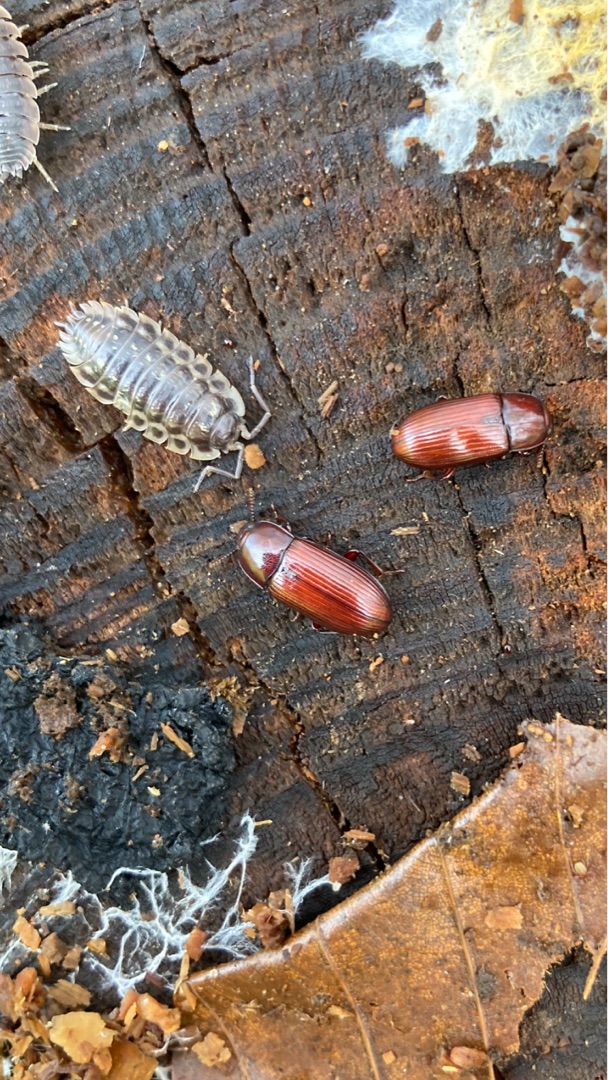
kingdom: Animalia
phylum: Arthropoda
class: Insecta
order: Coleoptera
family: Tenebrionidae
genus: Uloma
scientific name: Uloma culinaris
